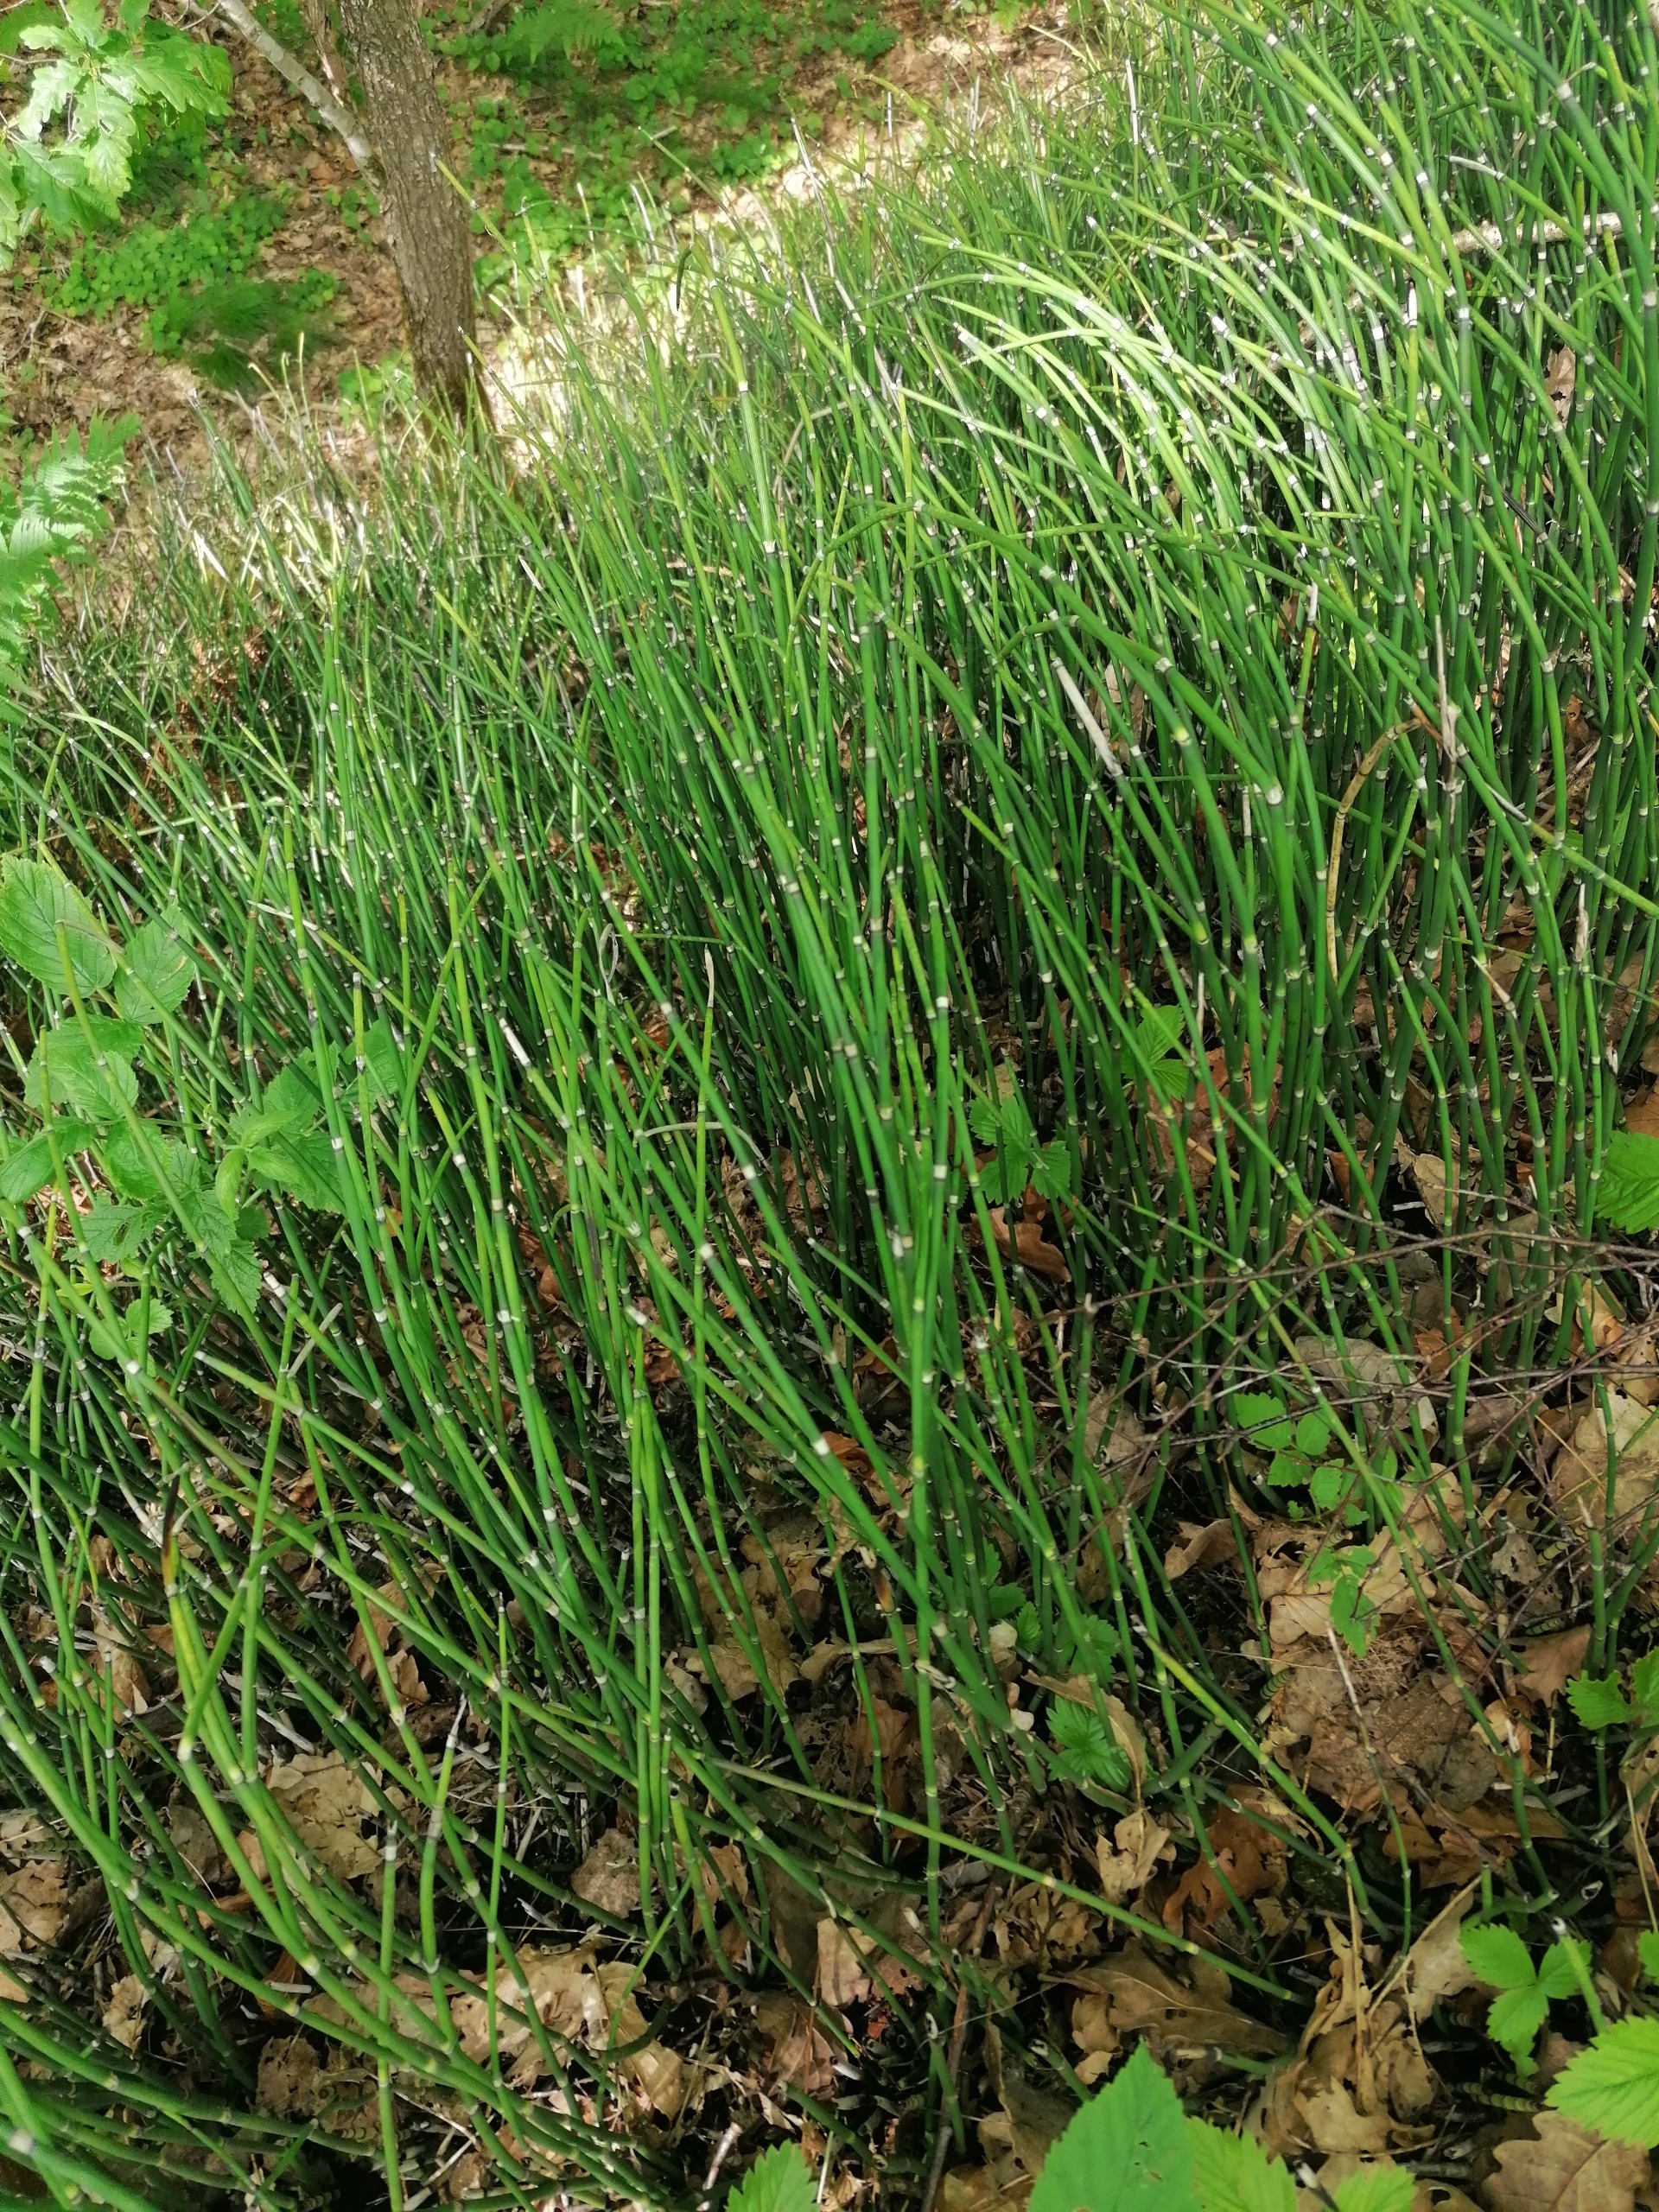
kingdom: Plantae
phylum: Tracheophyta
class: Polypodiopsida
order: Equisetales
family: Equisetaceae
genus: Equisetum
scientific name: Equisetum hyemale
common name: Skavgræs
